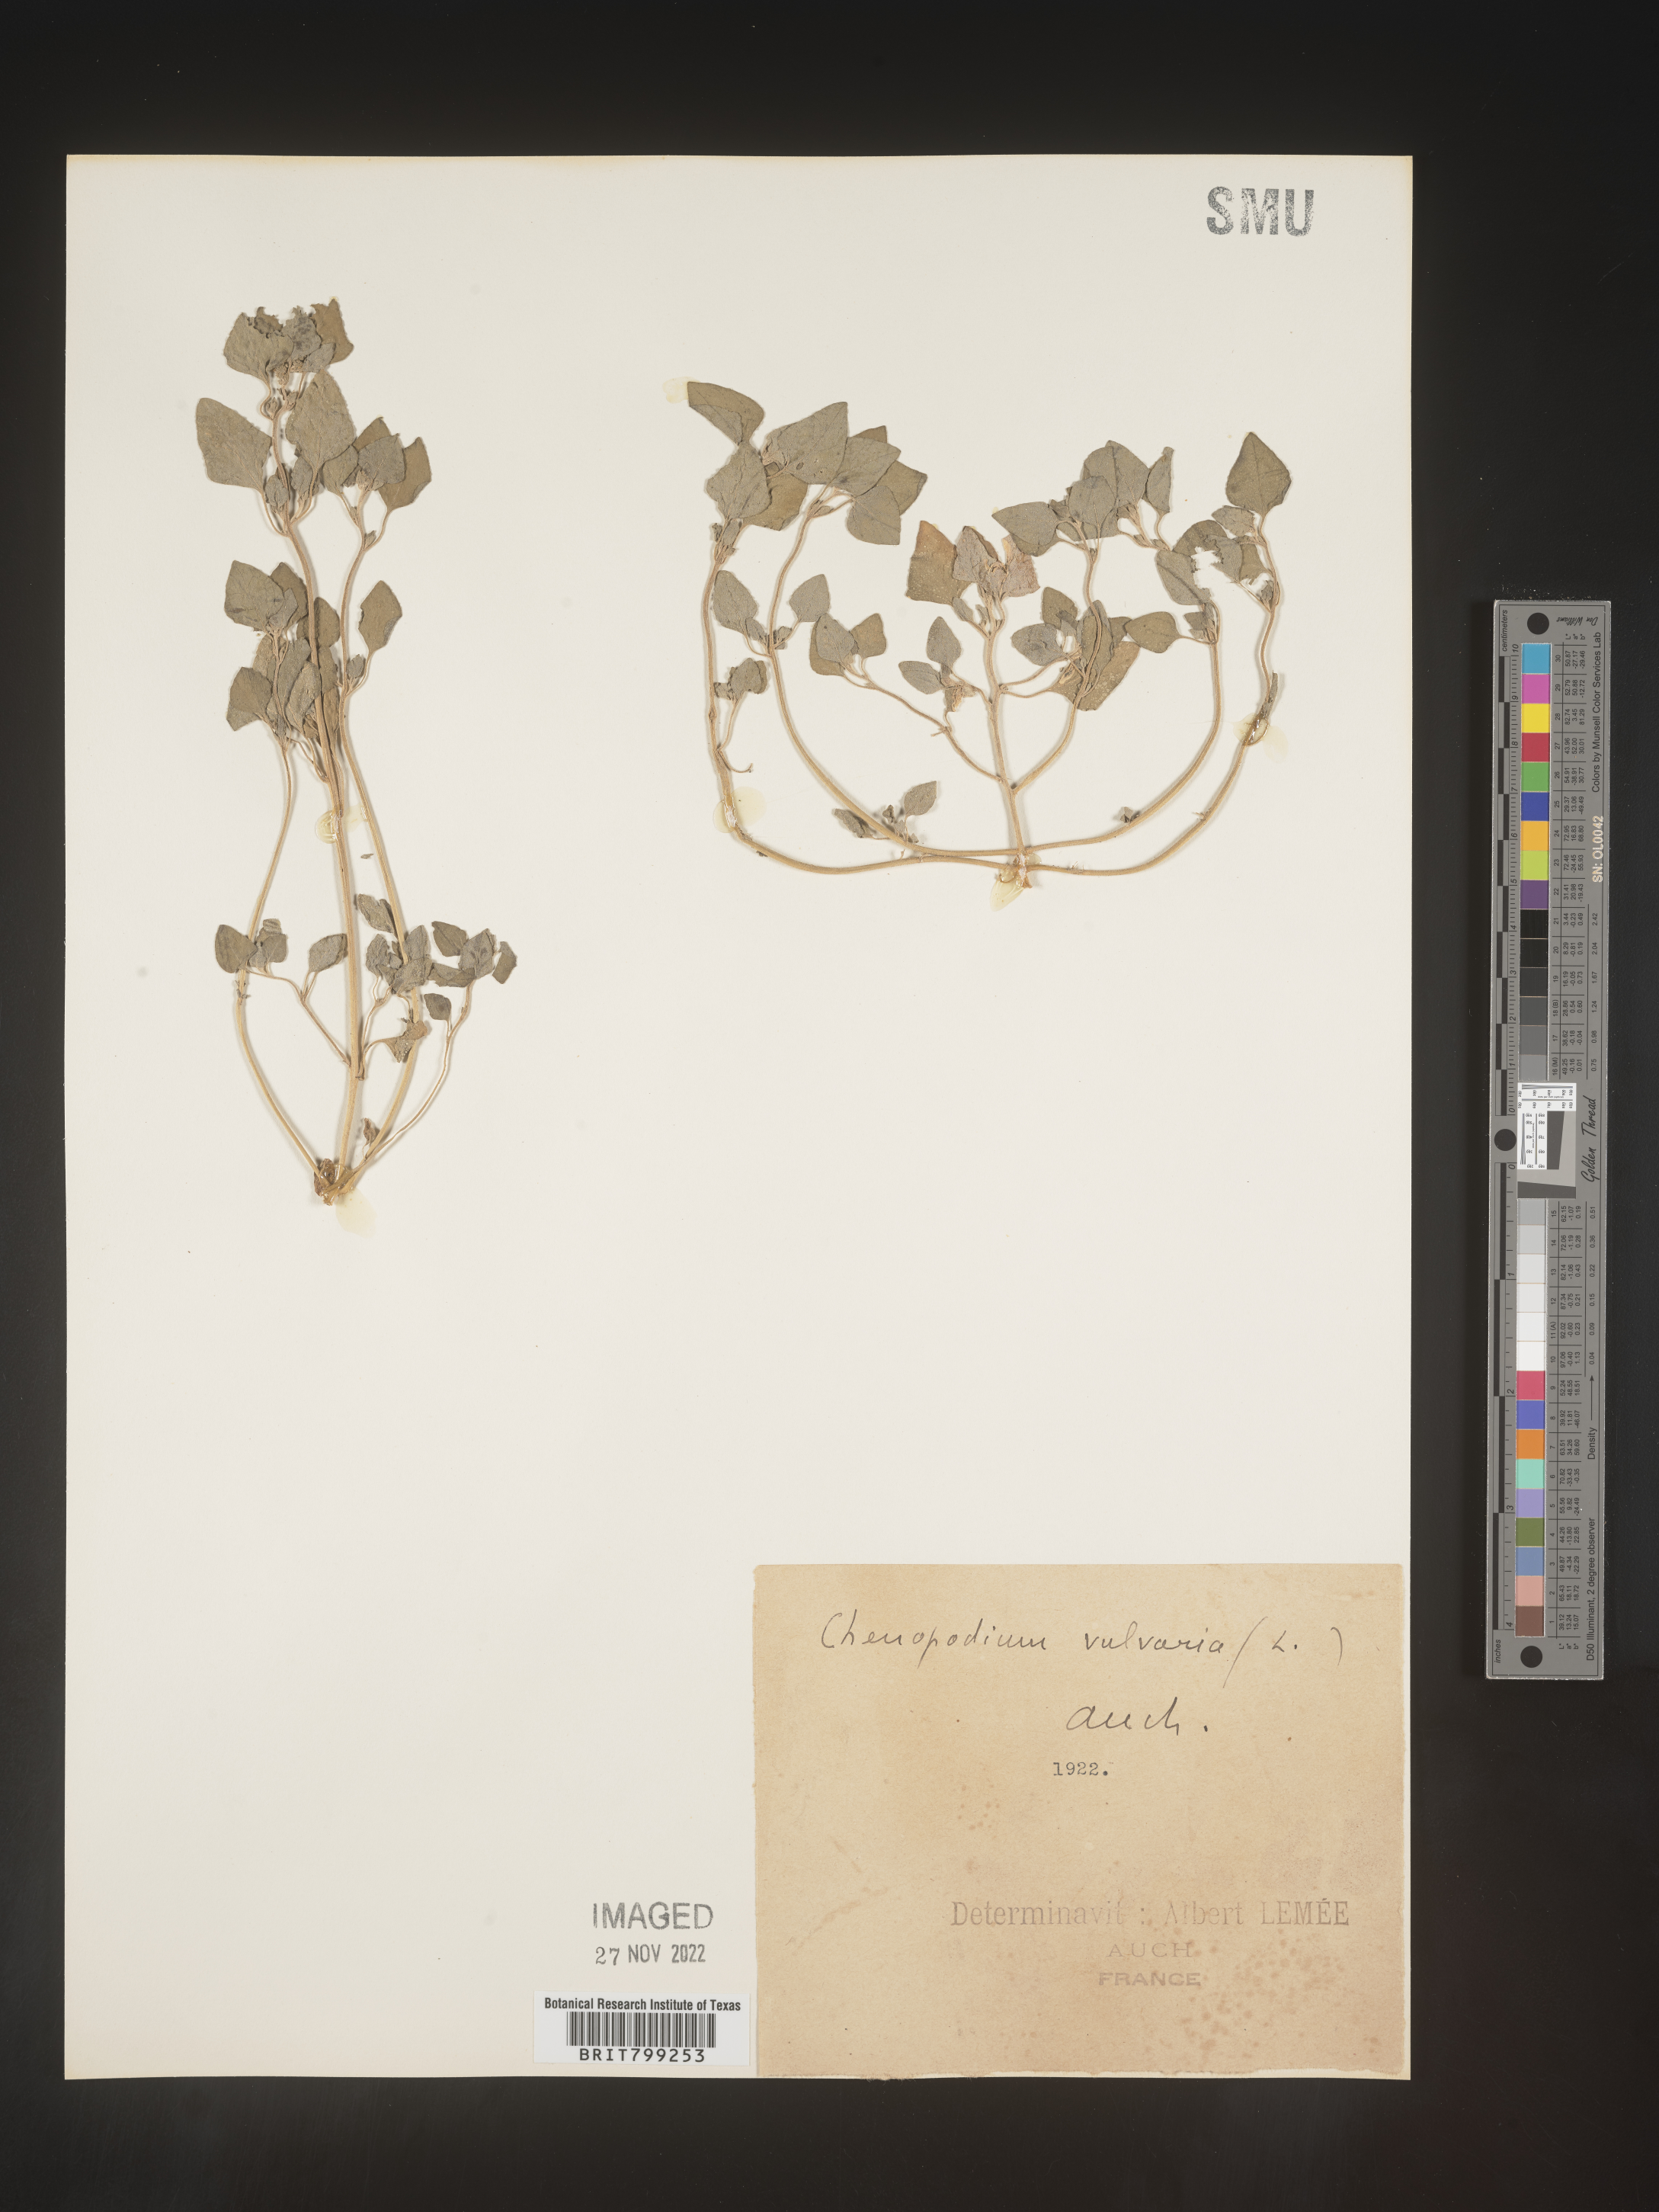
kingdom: Plantae
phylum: Tracheophyta
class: Magnoliopsida
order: Caryophyllales
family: Amaranthaceae
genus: Chenopodium
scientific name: Chenopodium
